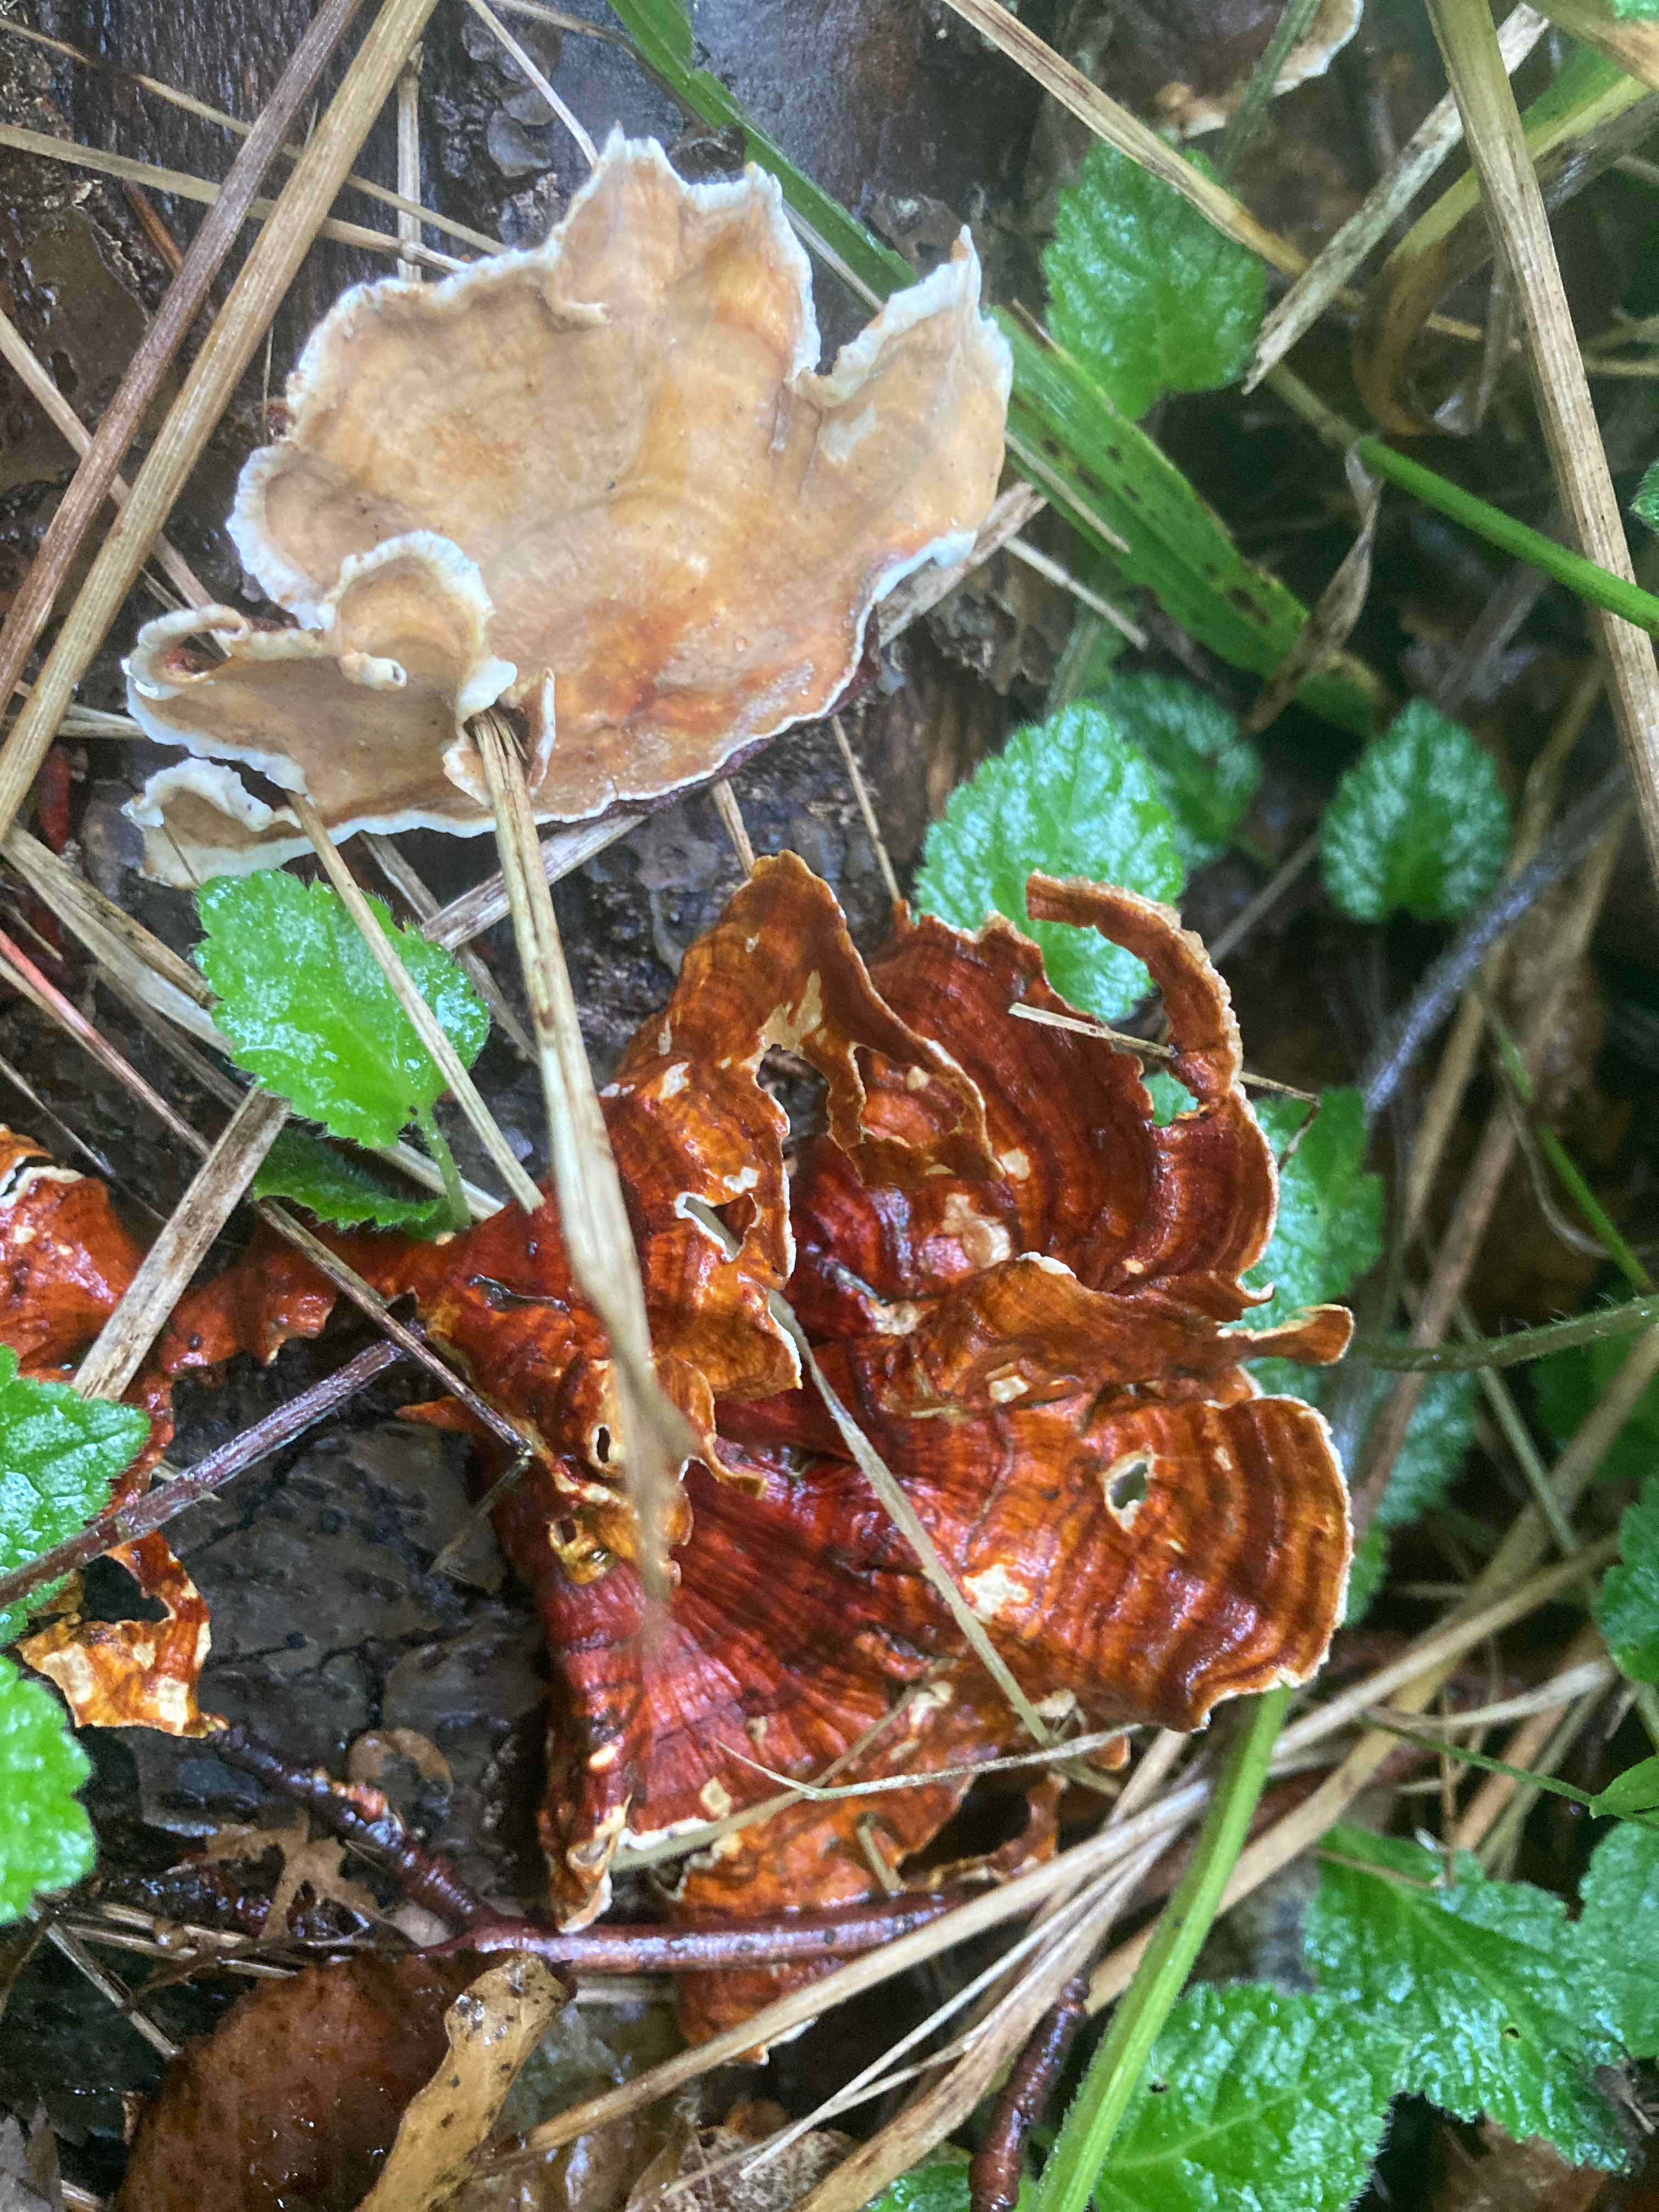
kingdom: Fungi
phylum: Basidiomycota
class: Agaricomycetes
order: Russulales
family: Stereaceae
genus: Stereum
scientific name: Stereum subtomentosum
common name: smuk lædersvamp
